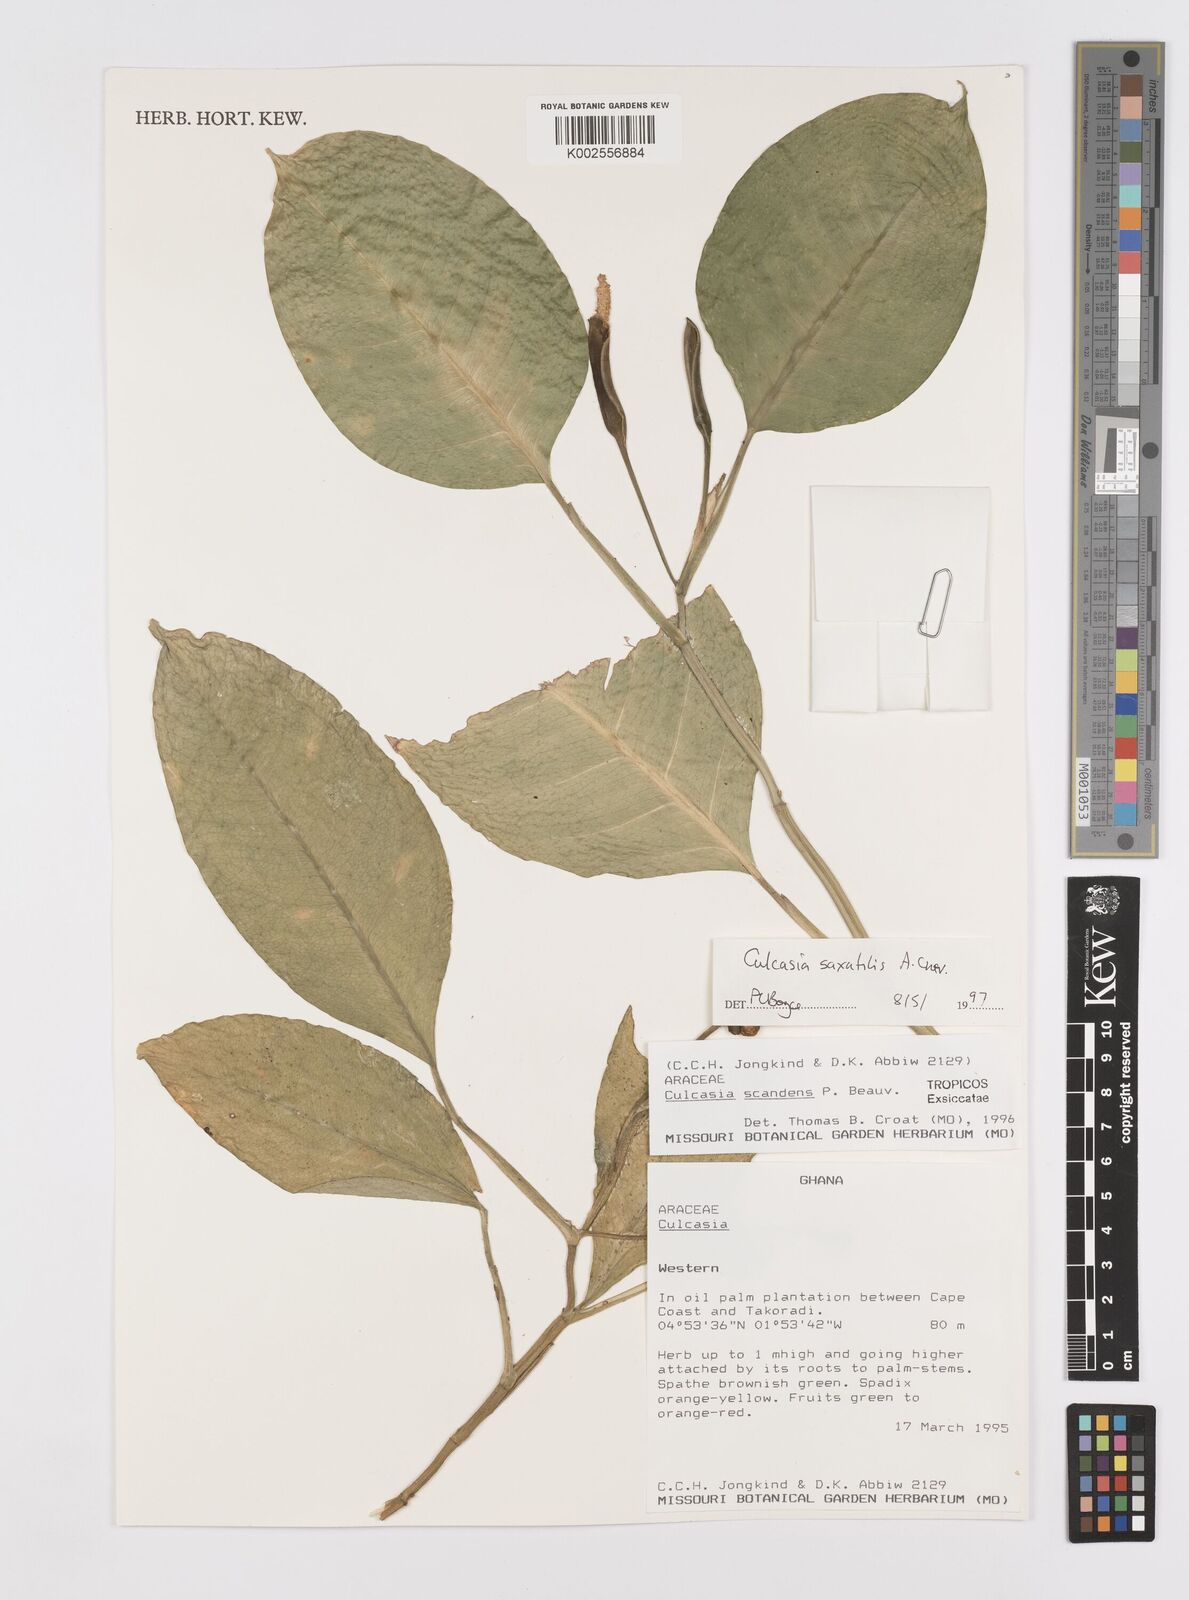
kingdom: Plantae
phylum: Tracheophyta
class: Liliopsida
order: Alismatales
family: Araceae
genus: Culcasia
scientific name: Culcasia scandens
